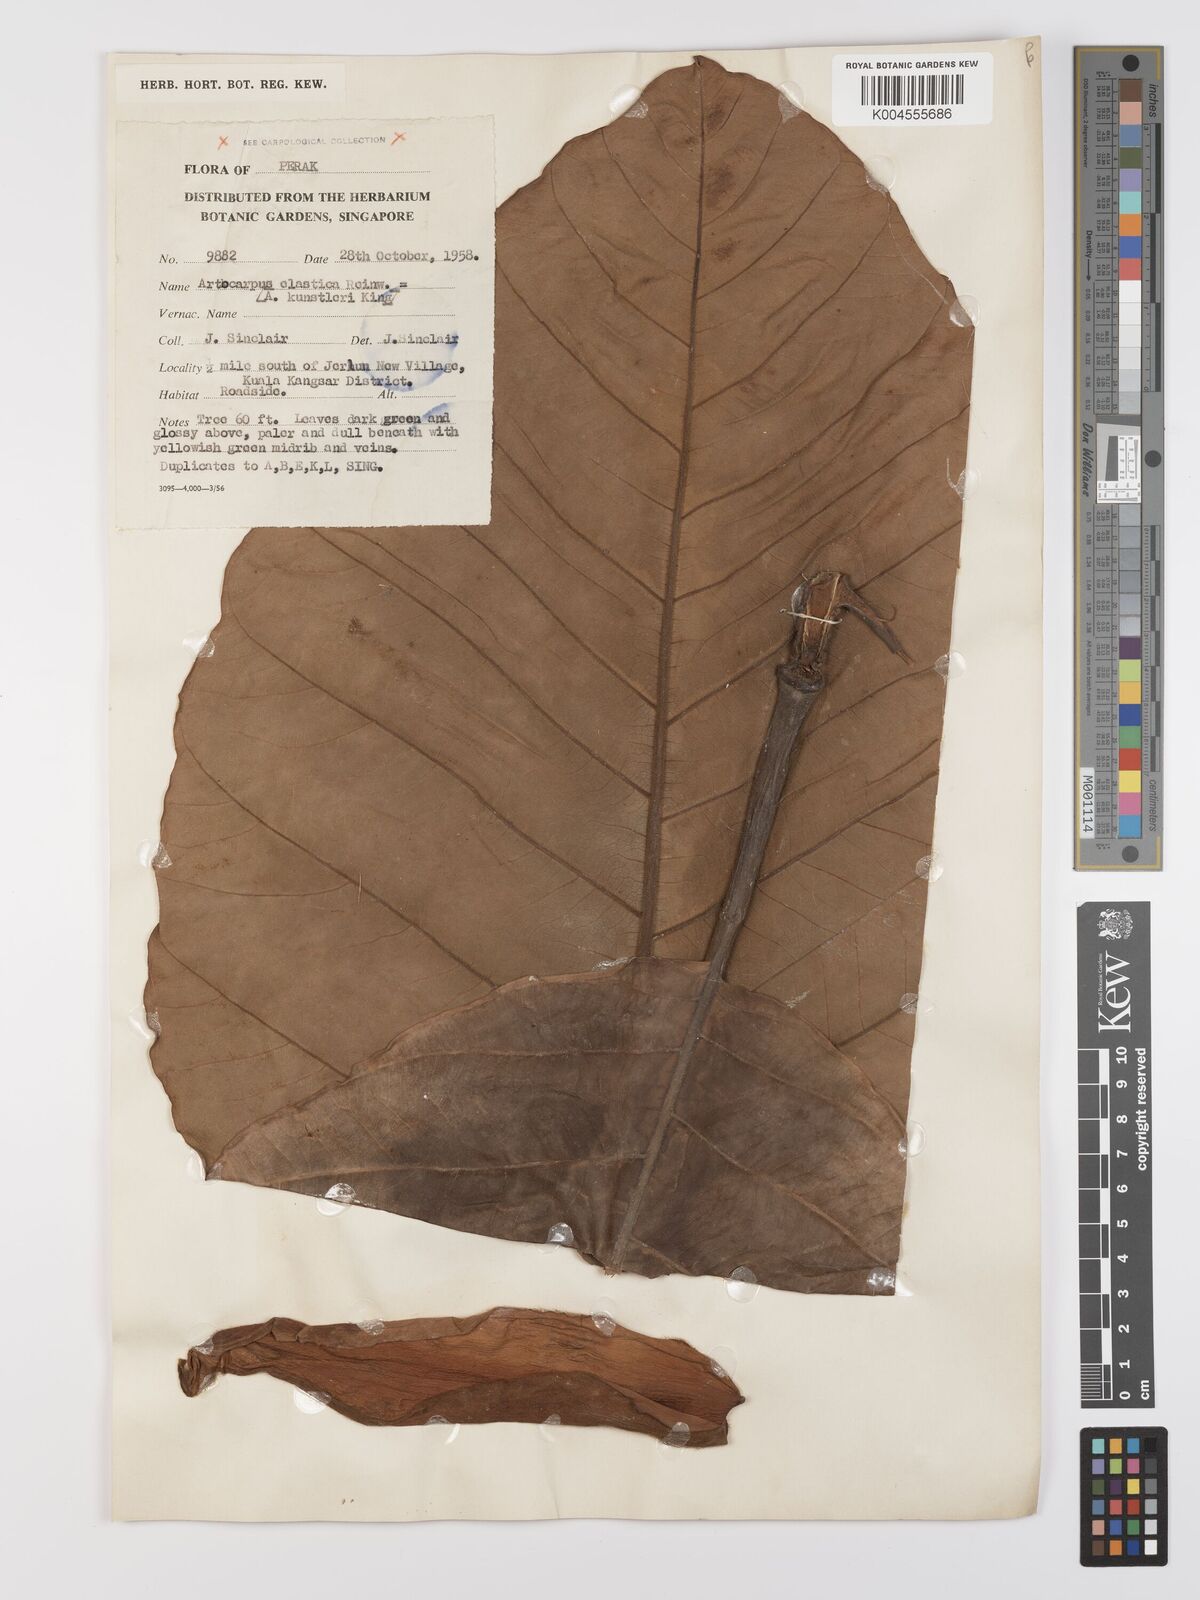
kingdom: Plantae
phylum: Tracheophyta
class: Magnoliopsida
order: Rosales
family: Moraceae
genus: Artocarpus
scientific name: Artocarpus elasticus
